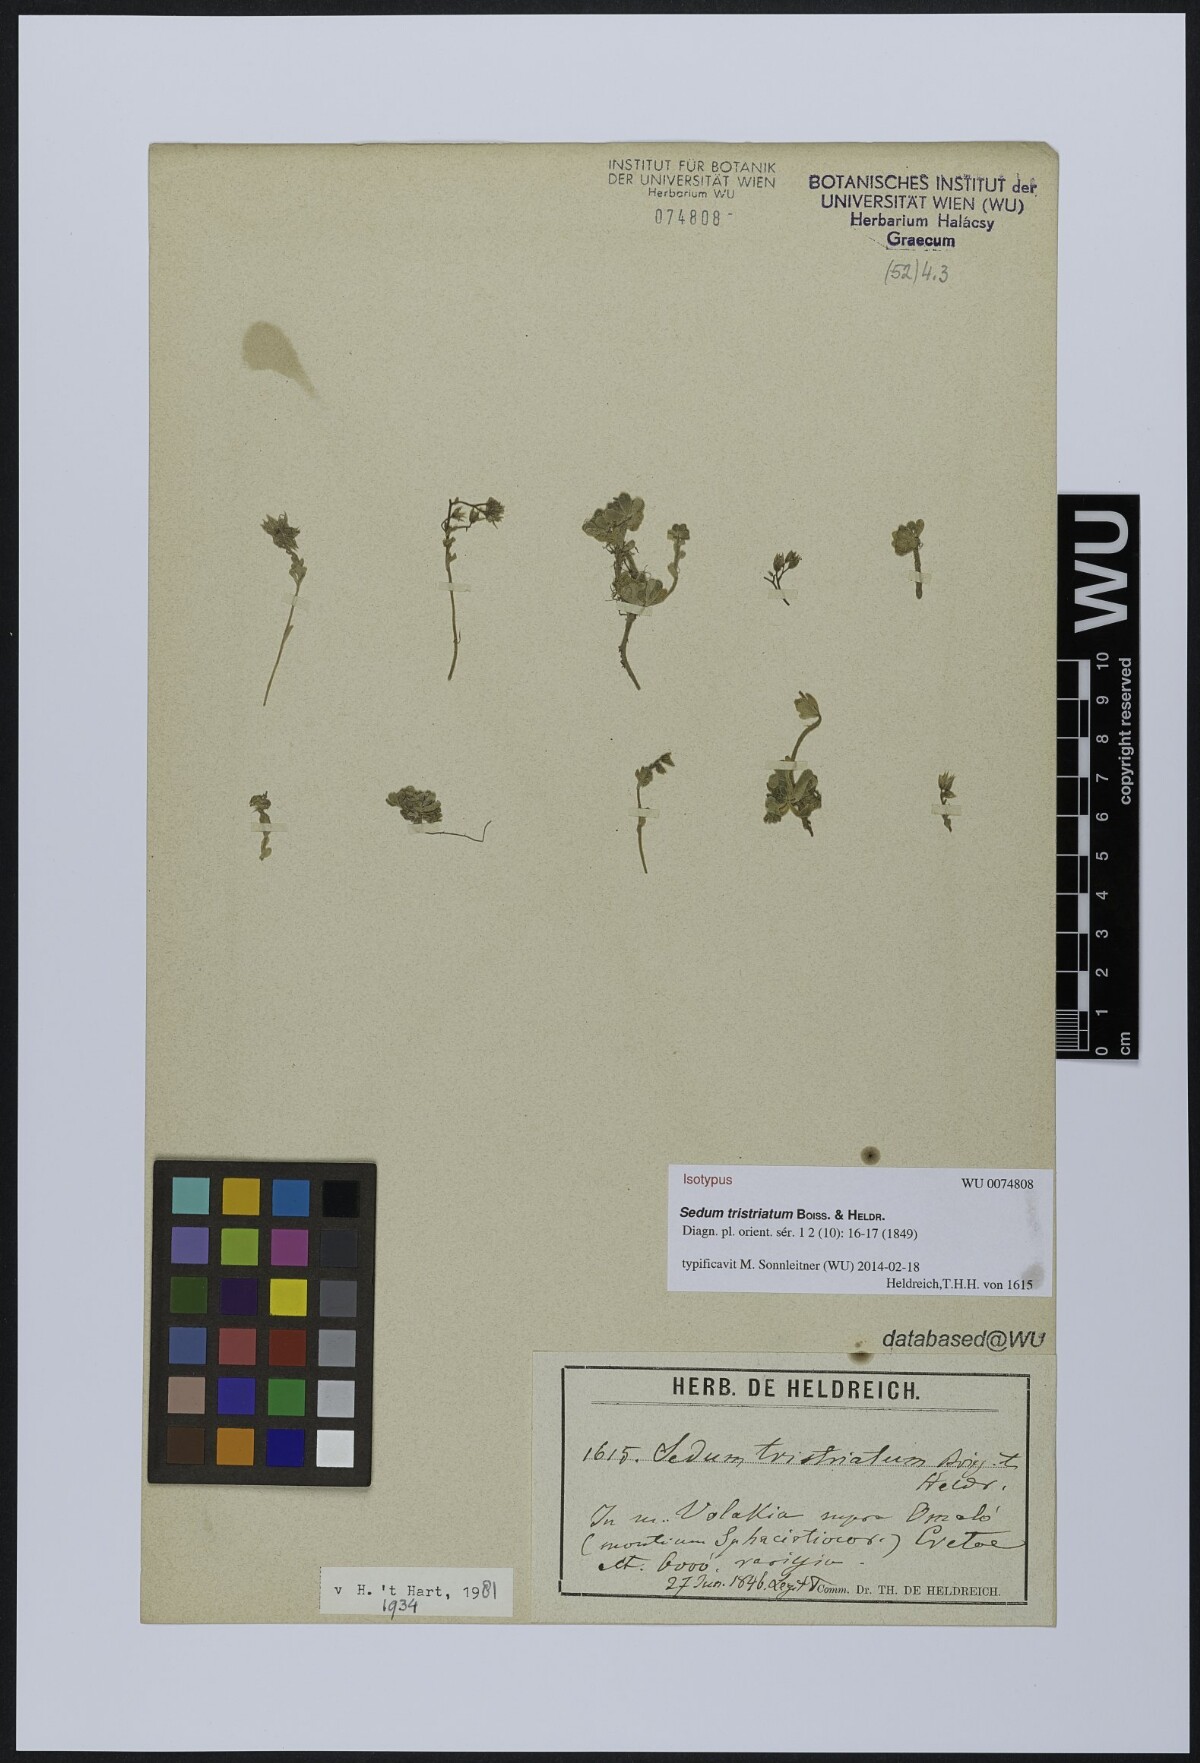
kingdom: Plantae
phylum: Tracheophyta
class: Magnoliopsida
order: Saxifragales
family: Crassulaceae
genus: Sedum
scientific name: Sedum tristriatum
